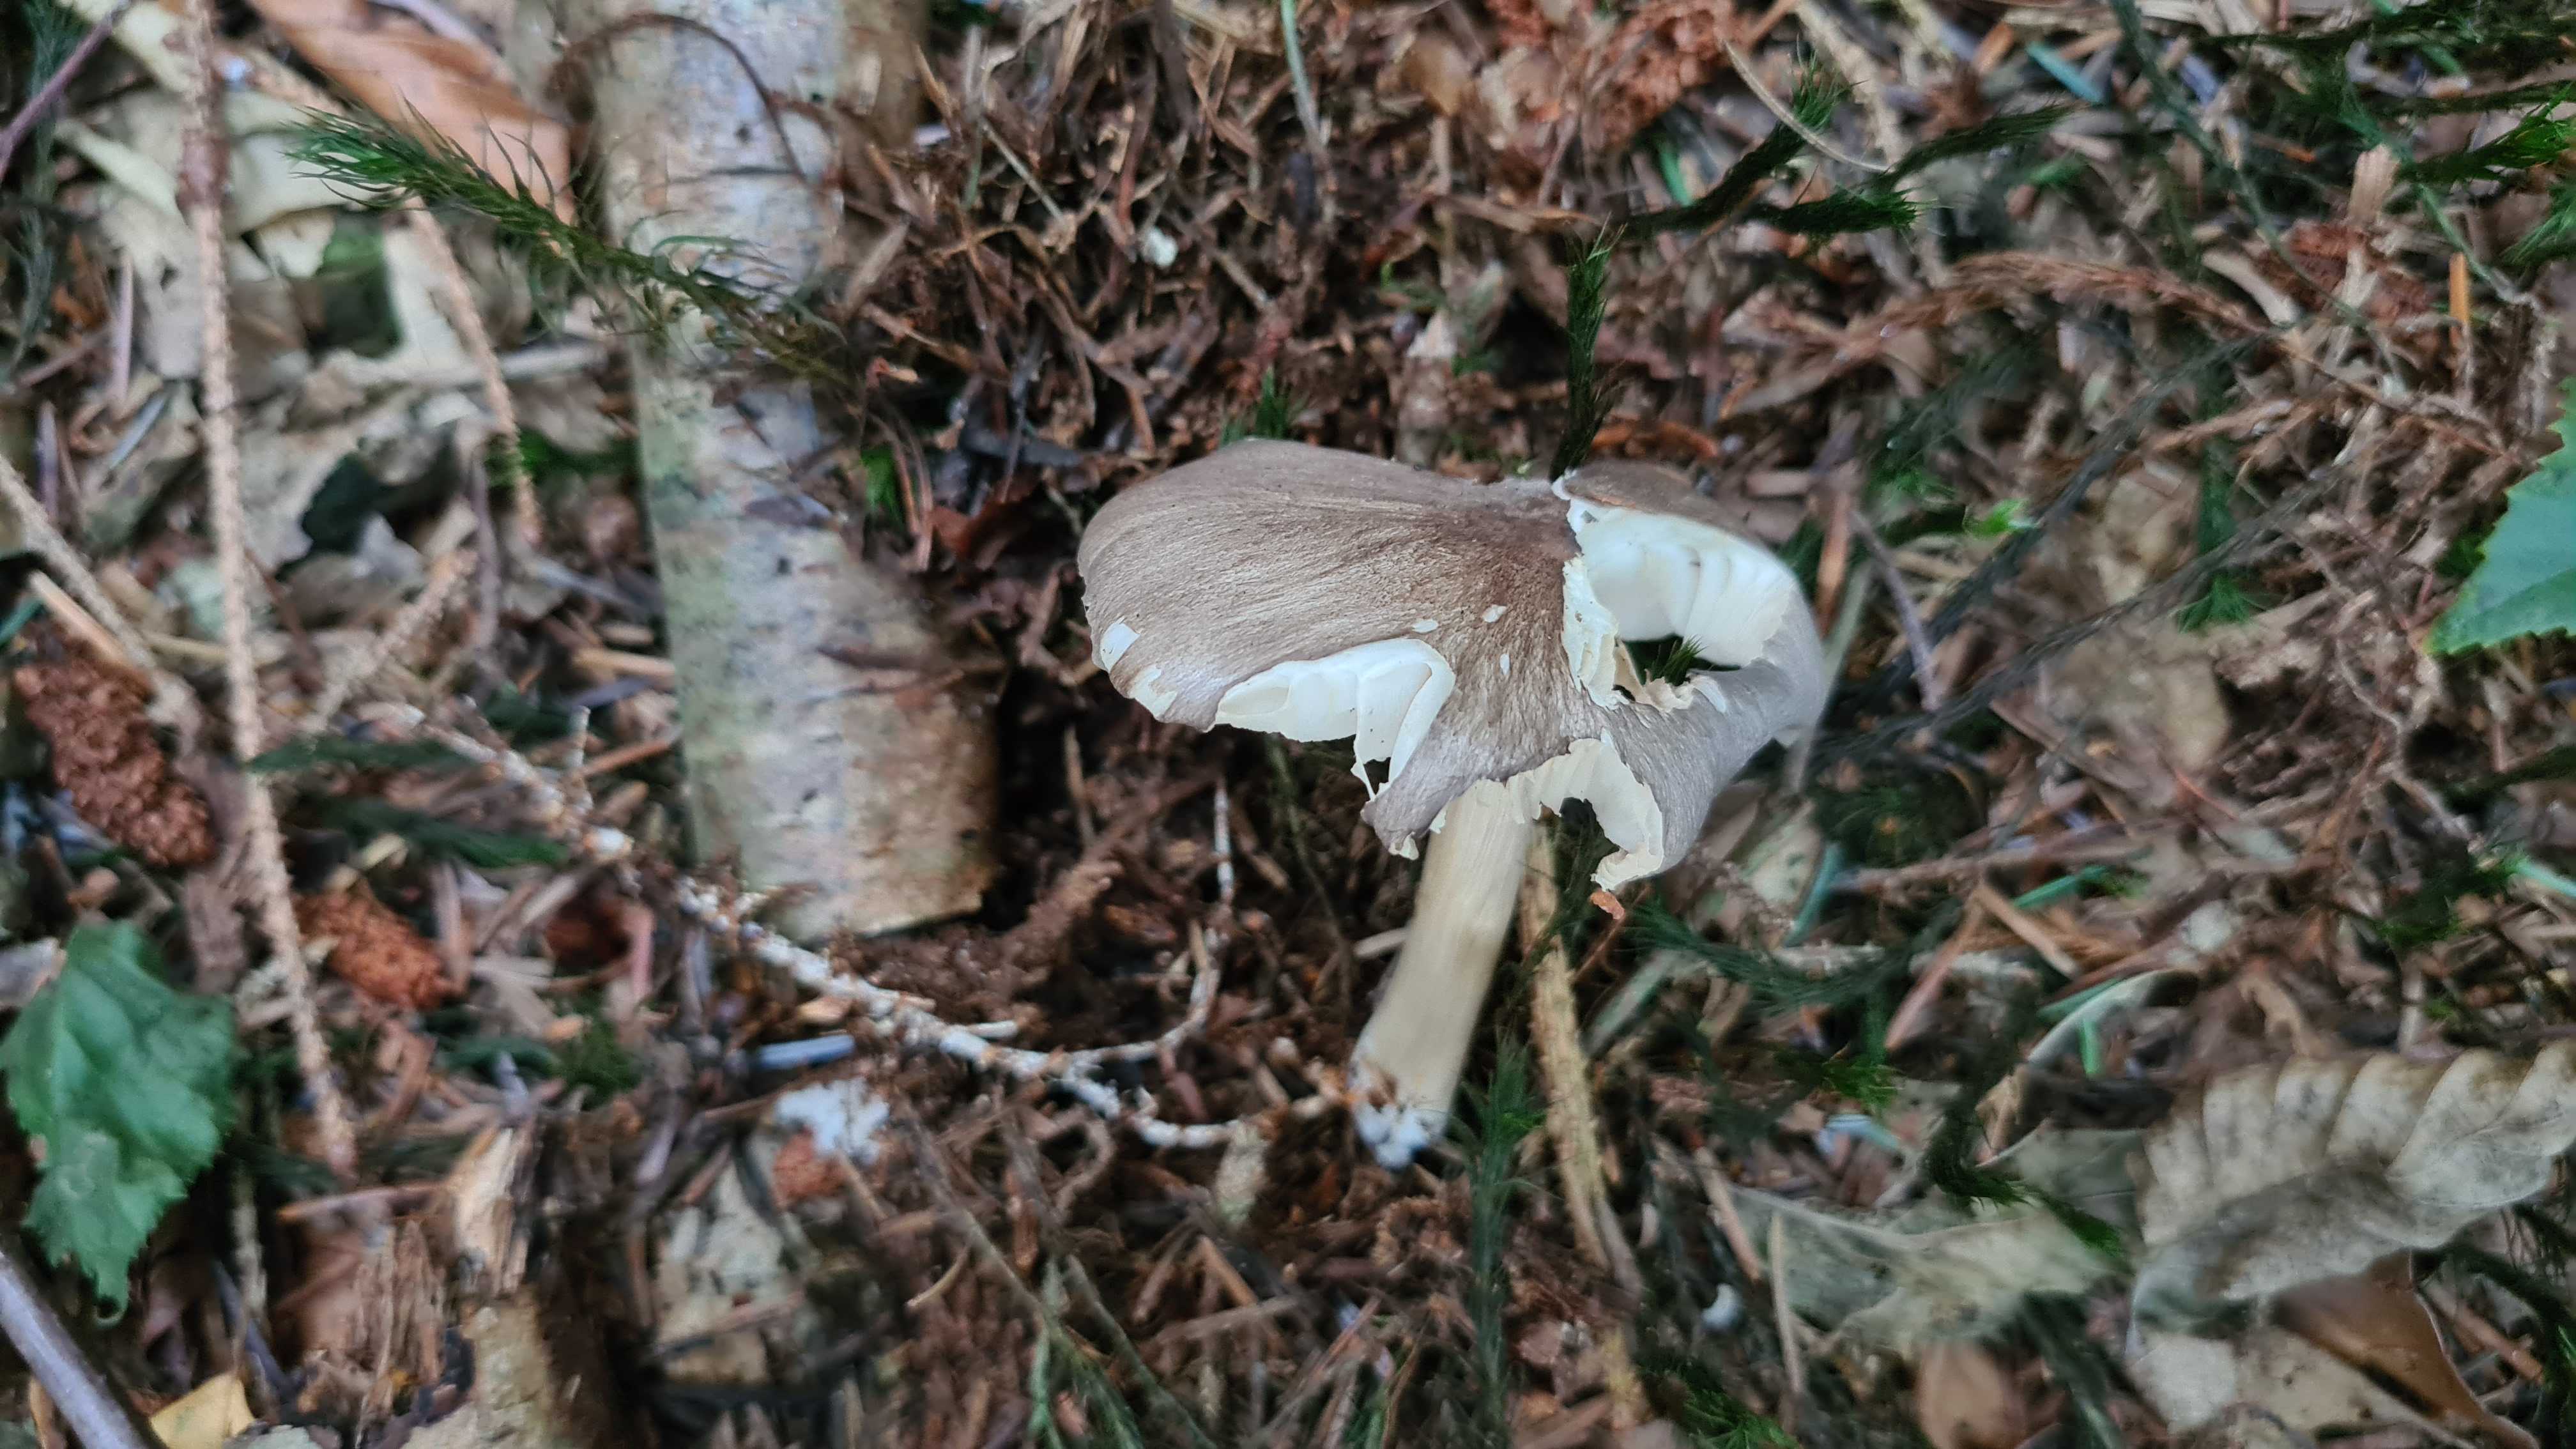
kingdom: Fungi
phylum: Basidiomycota
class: Agaricomycetes
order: Agaricales
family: Tricholomataceae
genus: Megacollybia
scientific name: Megacollybia platyphylla
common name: bredbladet væbnerhat
